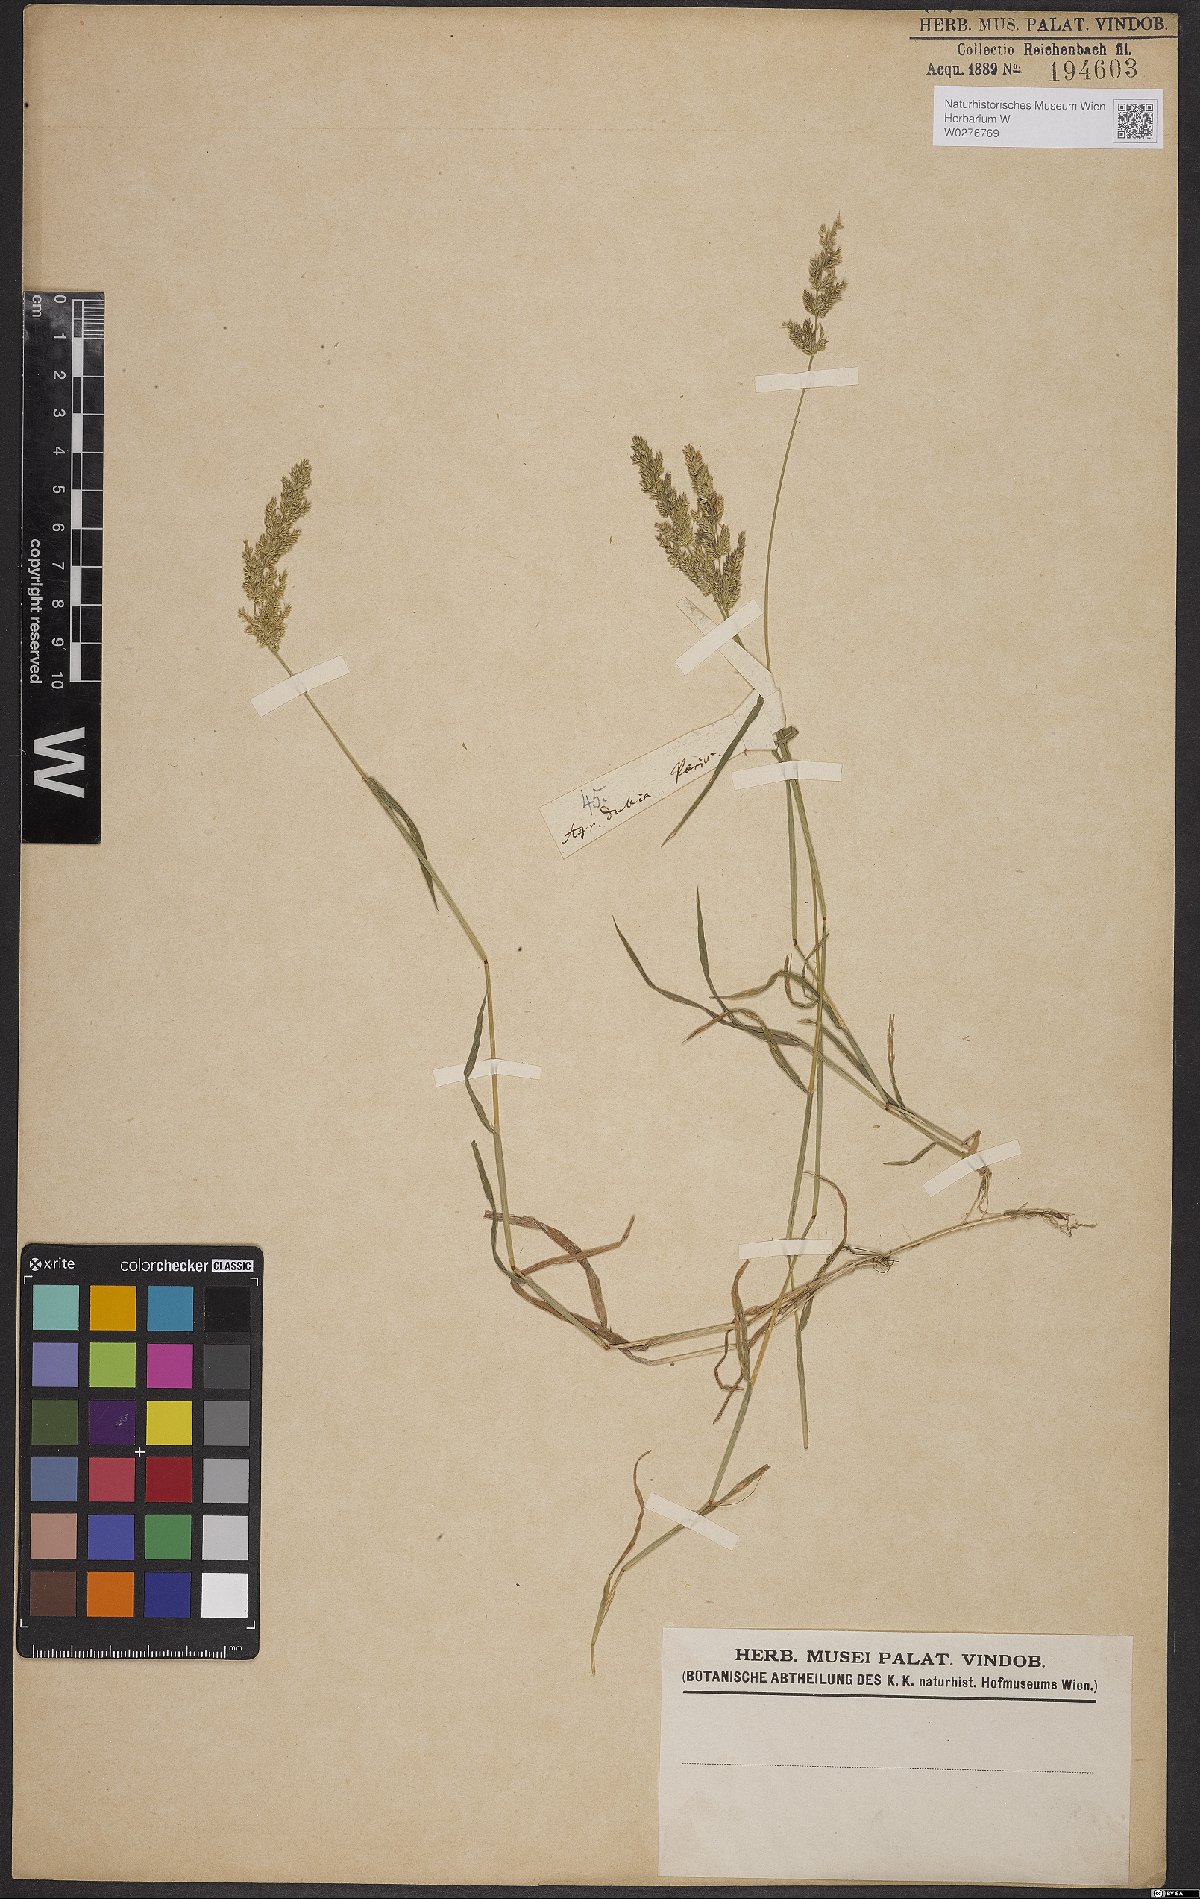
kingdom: Plantae
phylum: Tracheophyta
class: Liliopsida
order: Poales
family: Poaceae
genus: Chrysopogon
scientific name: Chrysopogon zizanioides
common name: False beardgrass
